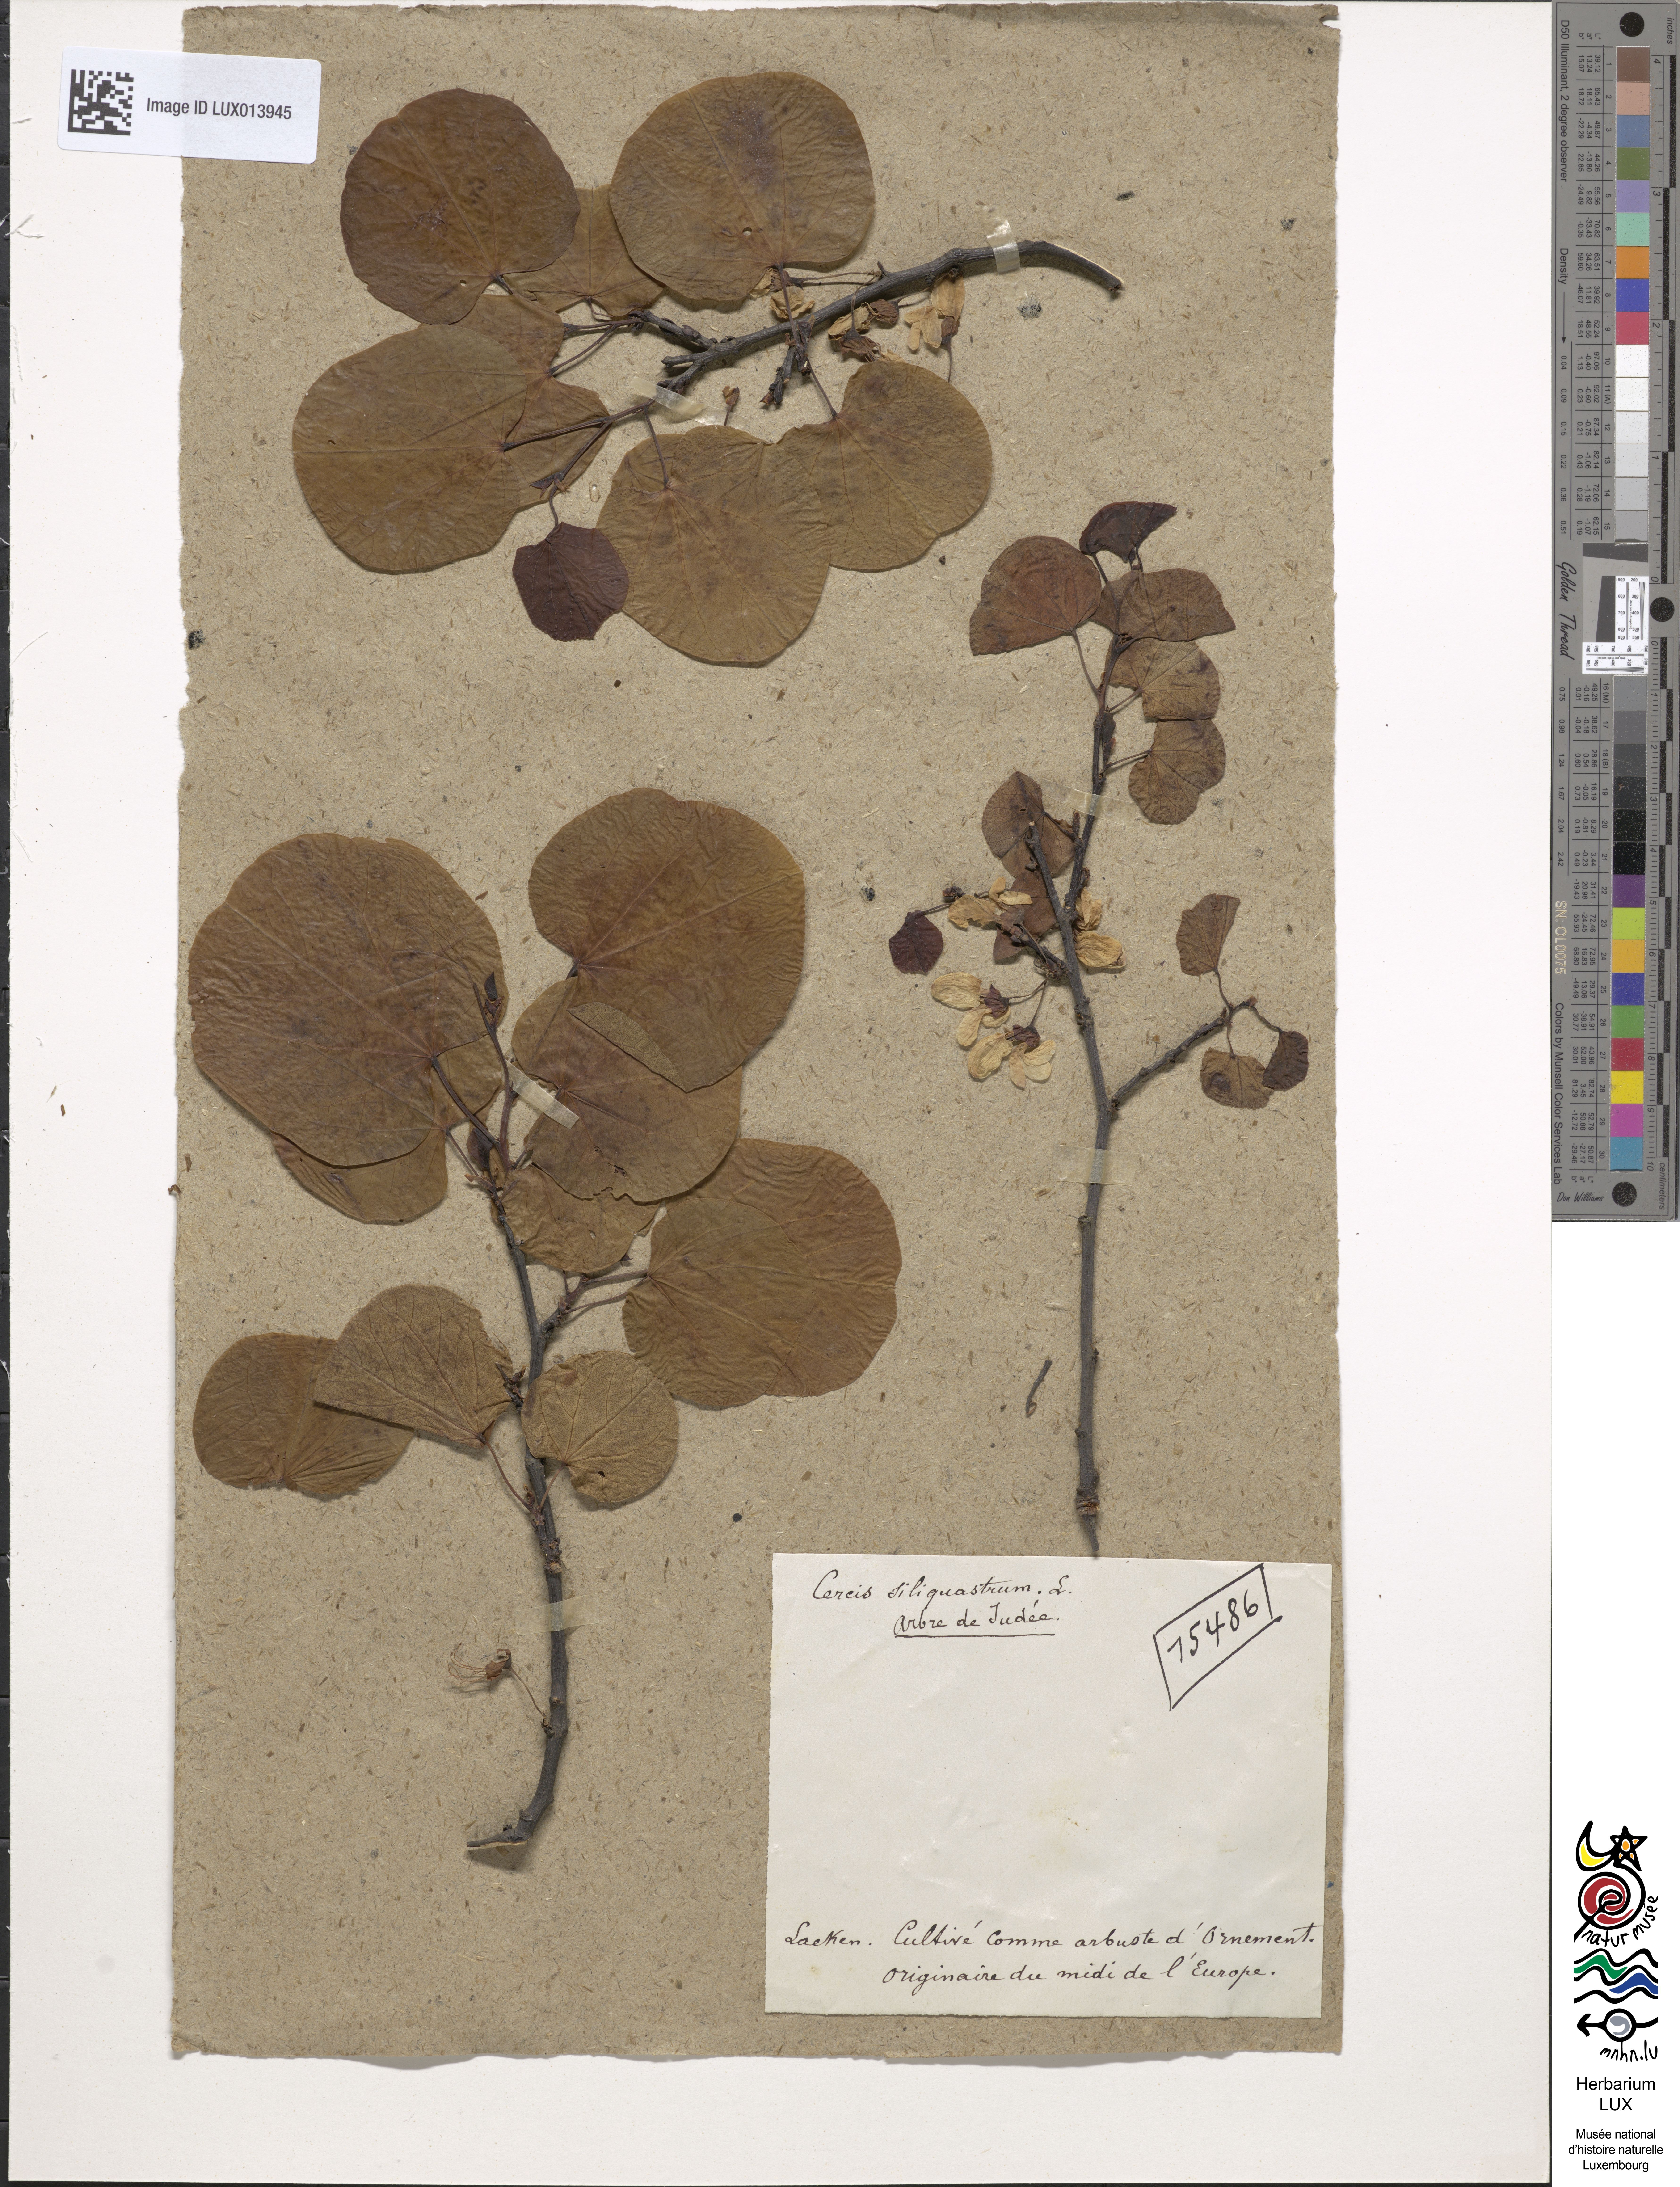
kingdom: Plantae
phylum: Tracheophyta
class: Magnoliopsida
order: Fabales
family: Fabaceae
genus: Cercis
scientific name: Cercis siliquastrum
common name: Judas tree
